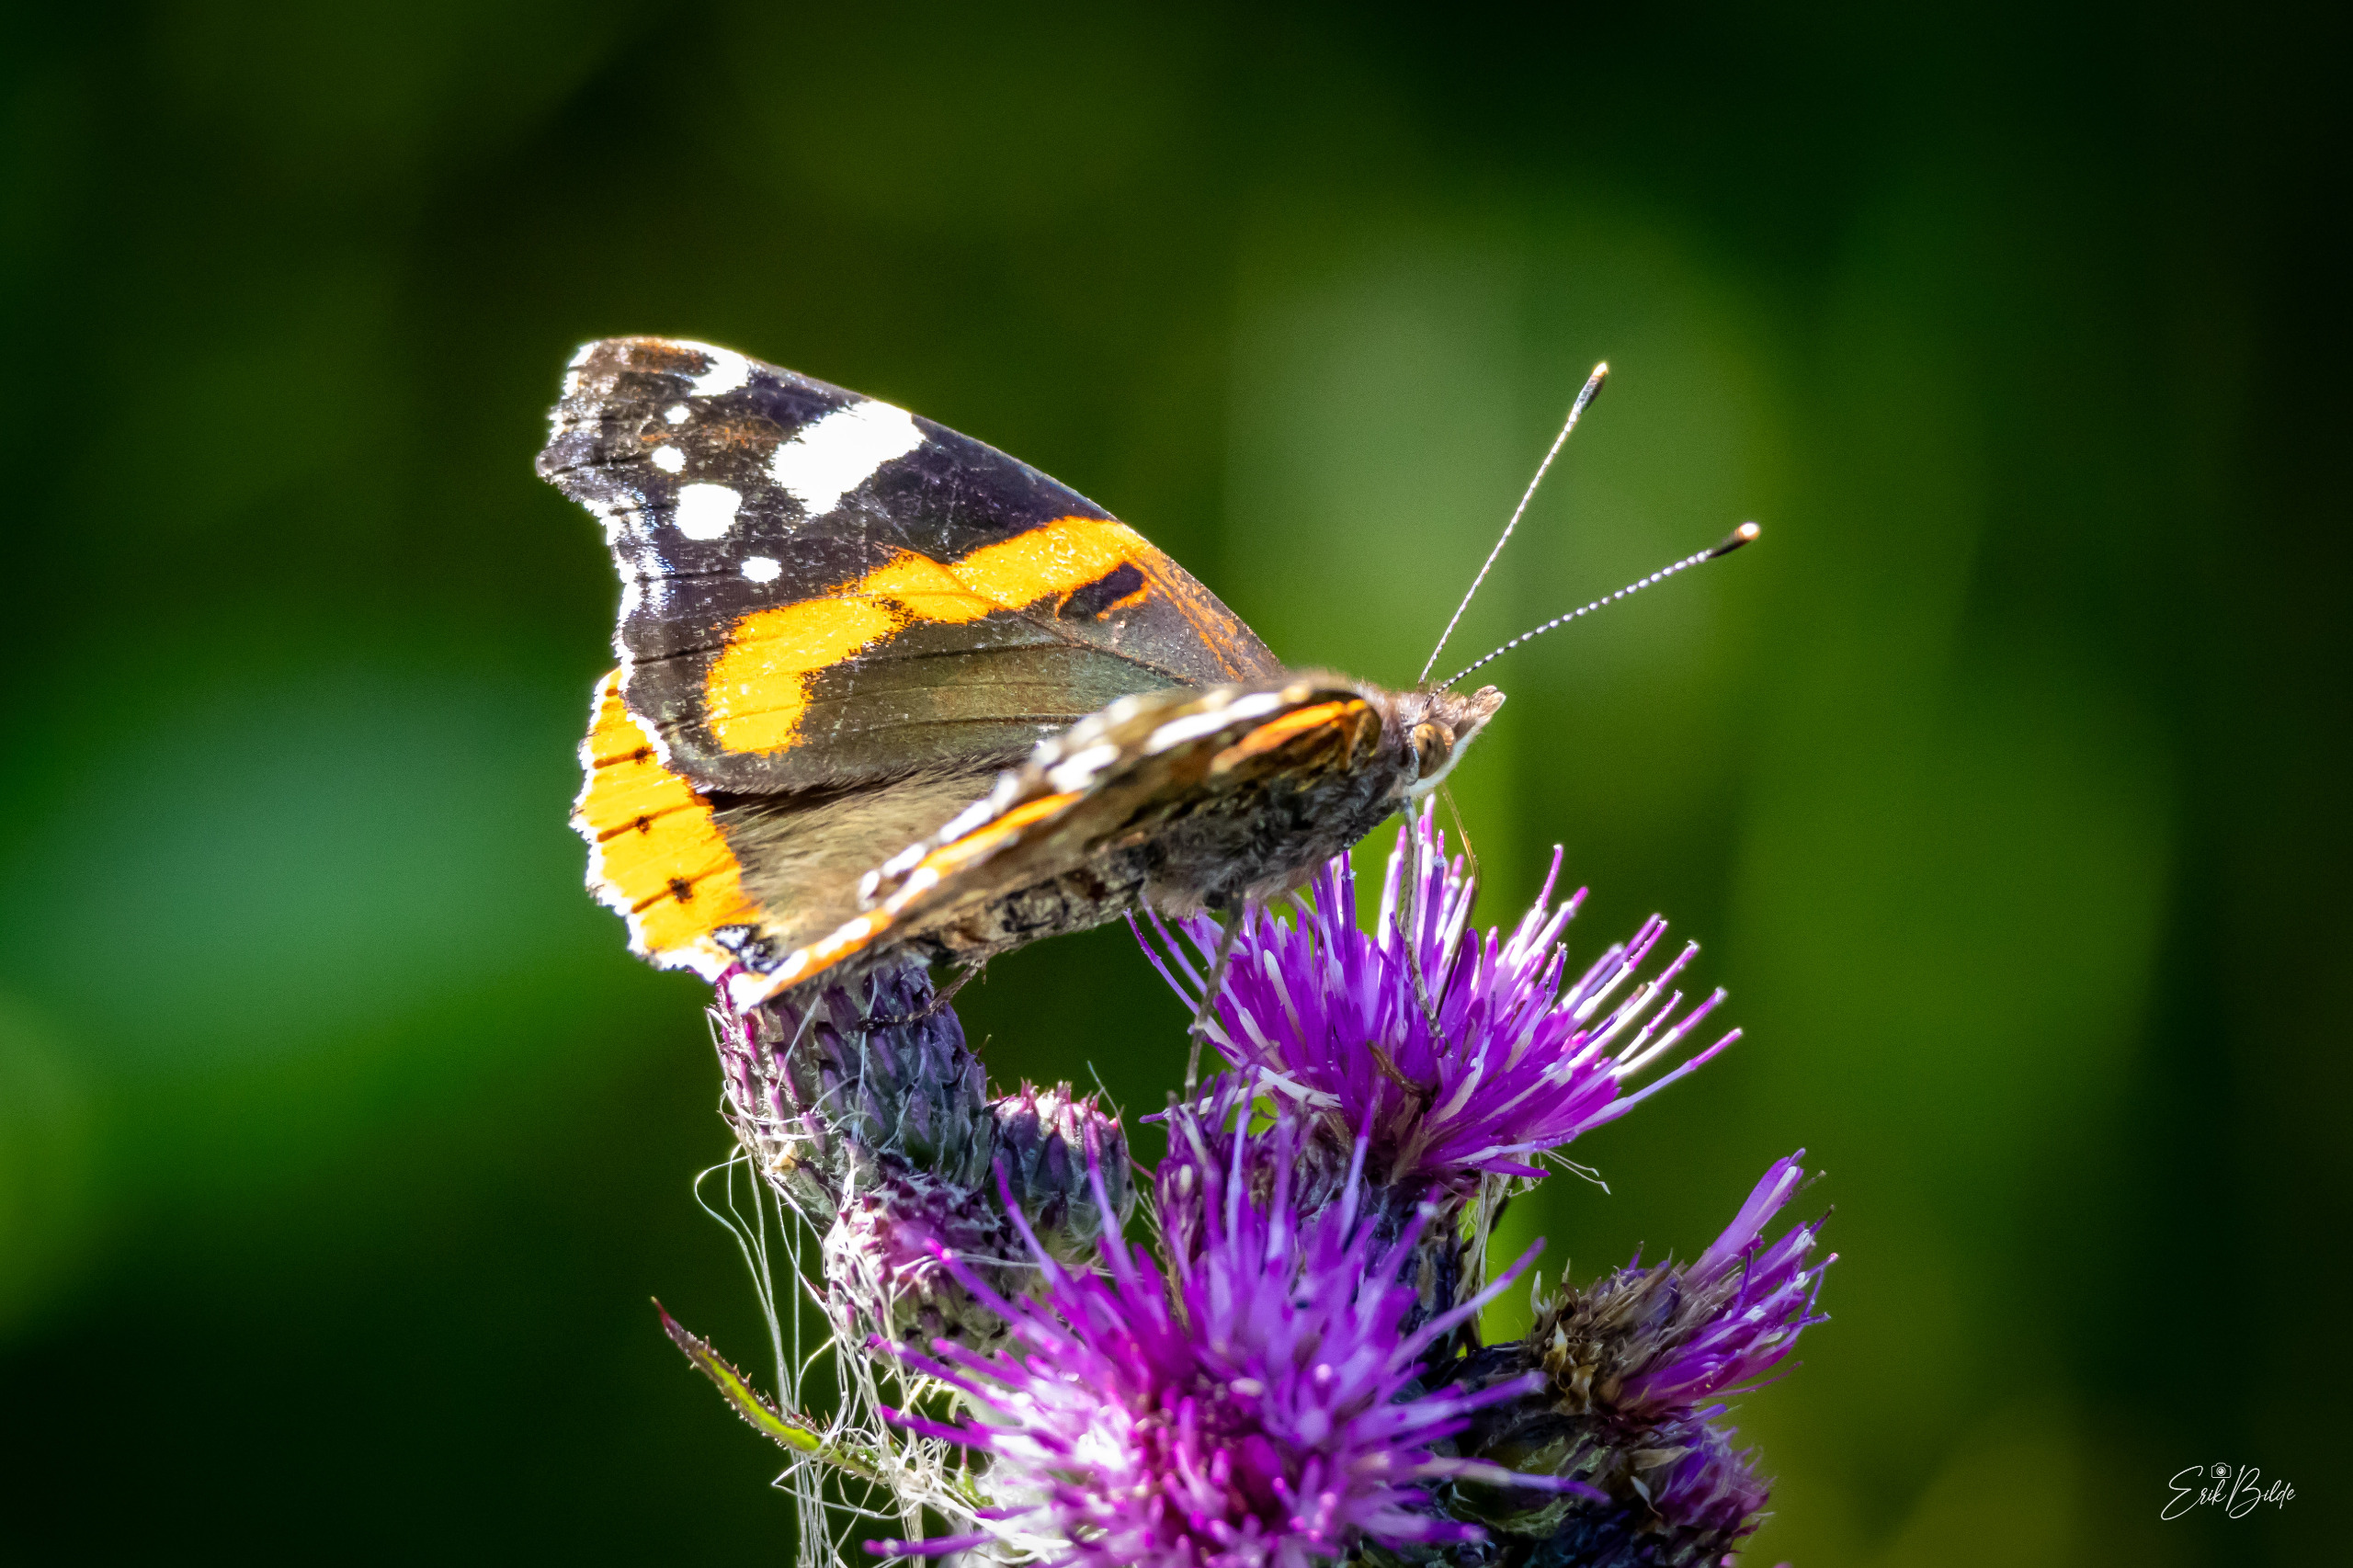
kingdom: Animalia
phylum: Arthropoda
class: Insecta
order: Lepidoptera
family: Nymphalidae
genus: Vanessa
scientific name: Vanessa atalanta
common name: Admiral
